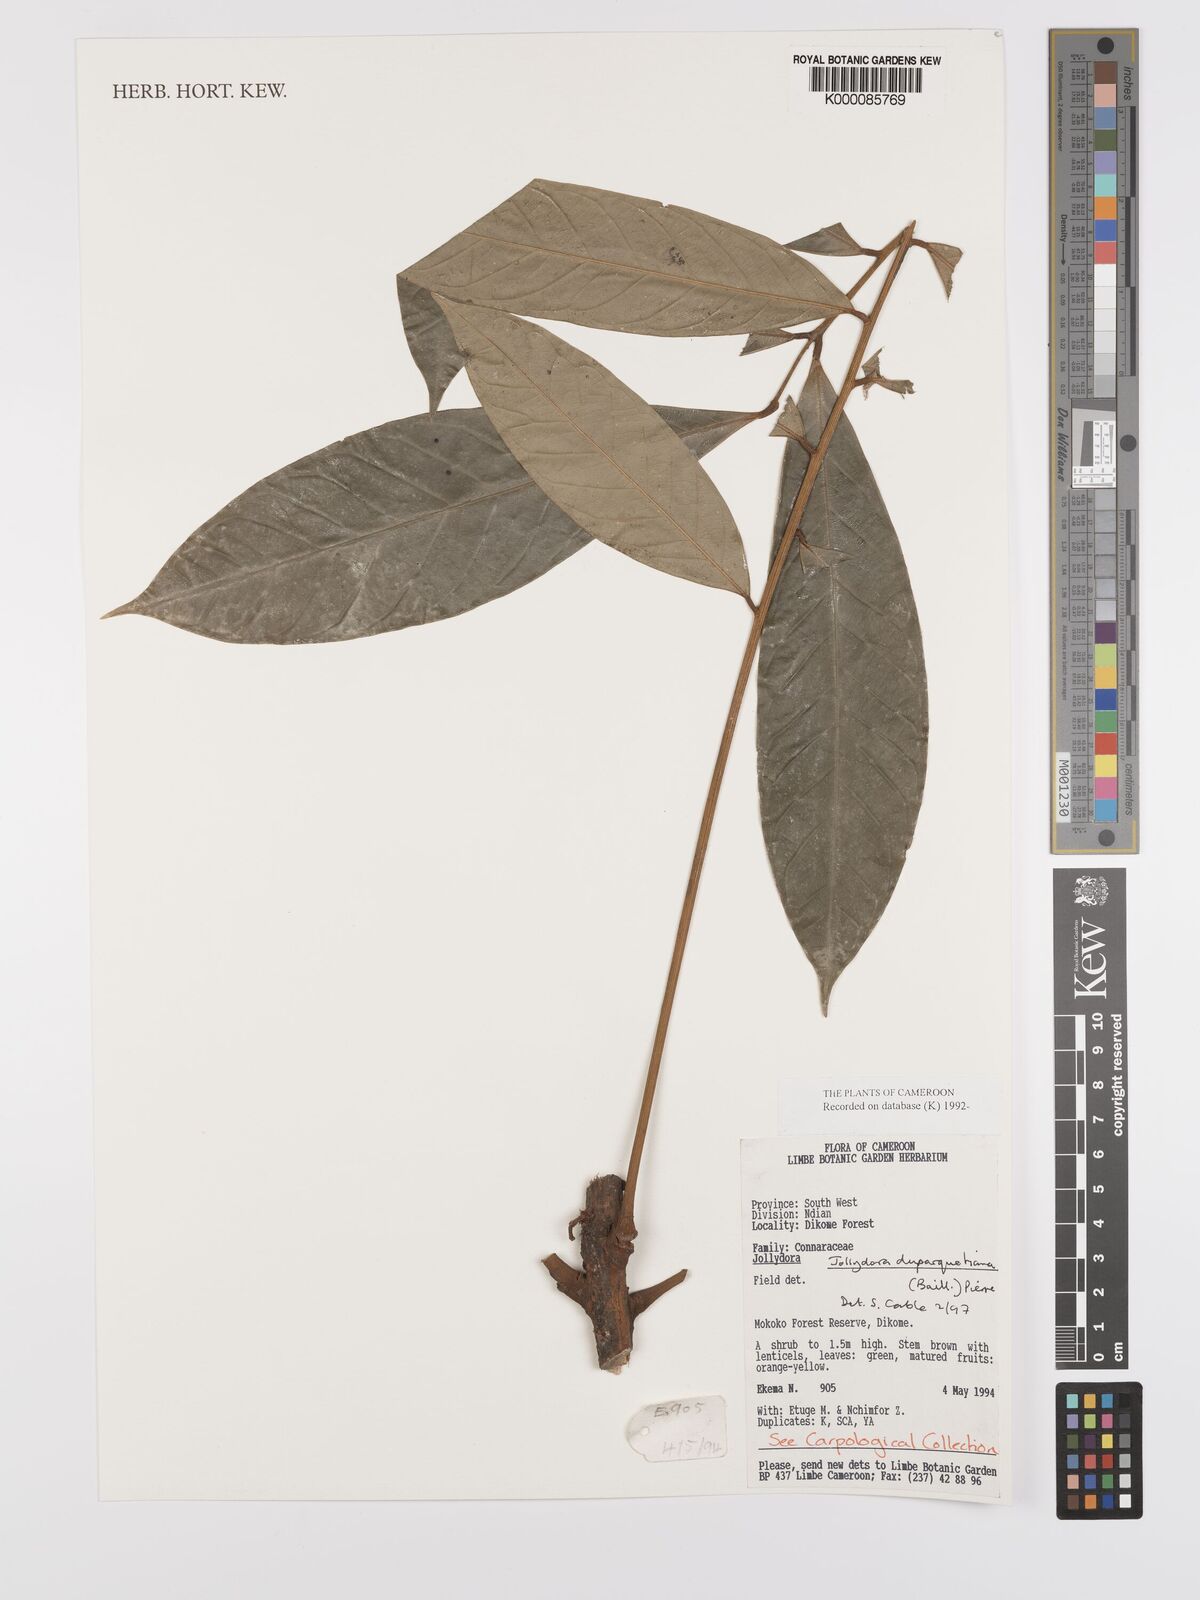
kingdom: Plantae
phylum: Tracheophyta
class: Magnoliopsida
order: Oxalidales
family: Connaraceae
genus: Jollydora
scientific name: Jollydora duparquetiana
